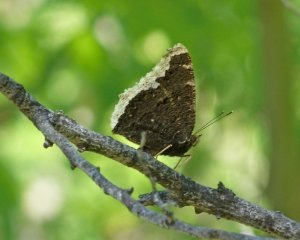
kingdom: Animalia
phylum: Arthropoda
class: Insecta
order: Lepidoptera
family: Nymphalidae
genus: Nymphalis
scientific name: Nymphalis antiopa
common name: Mourning Cloak
